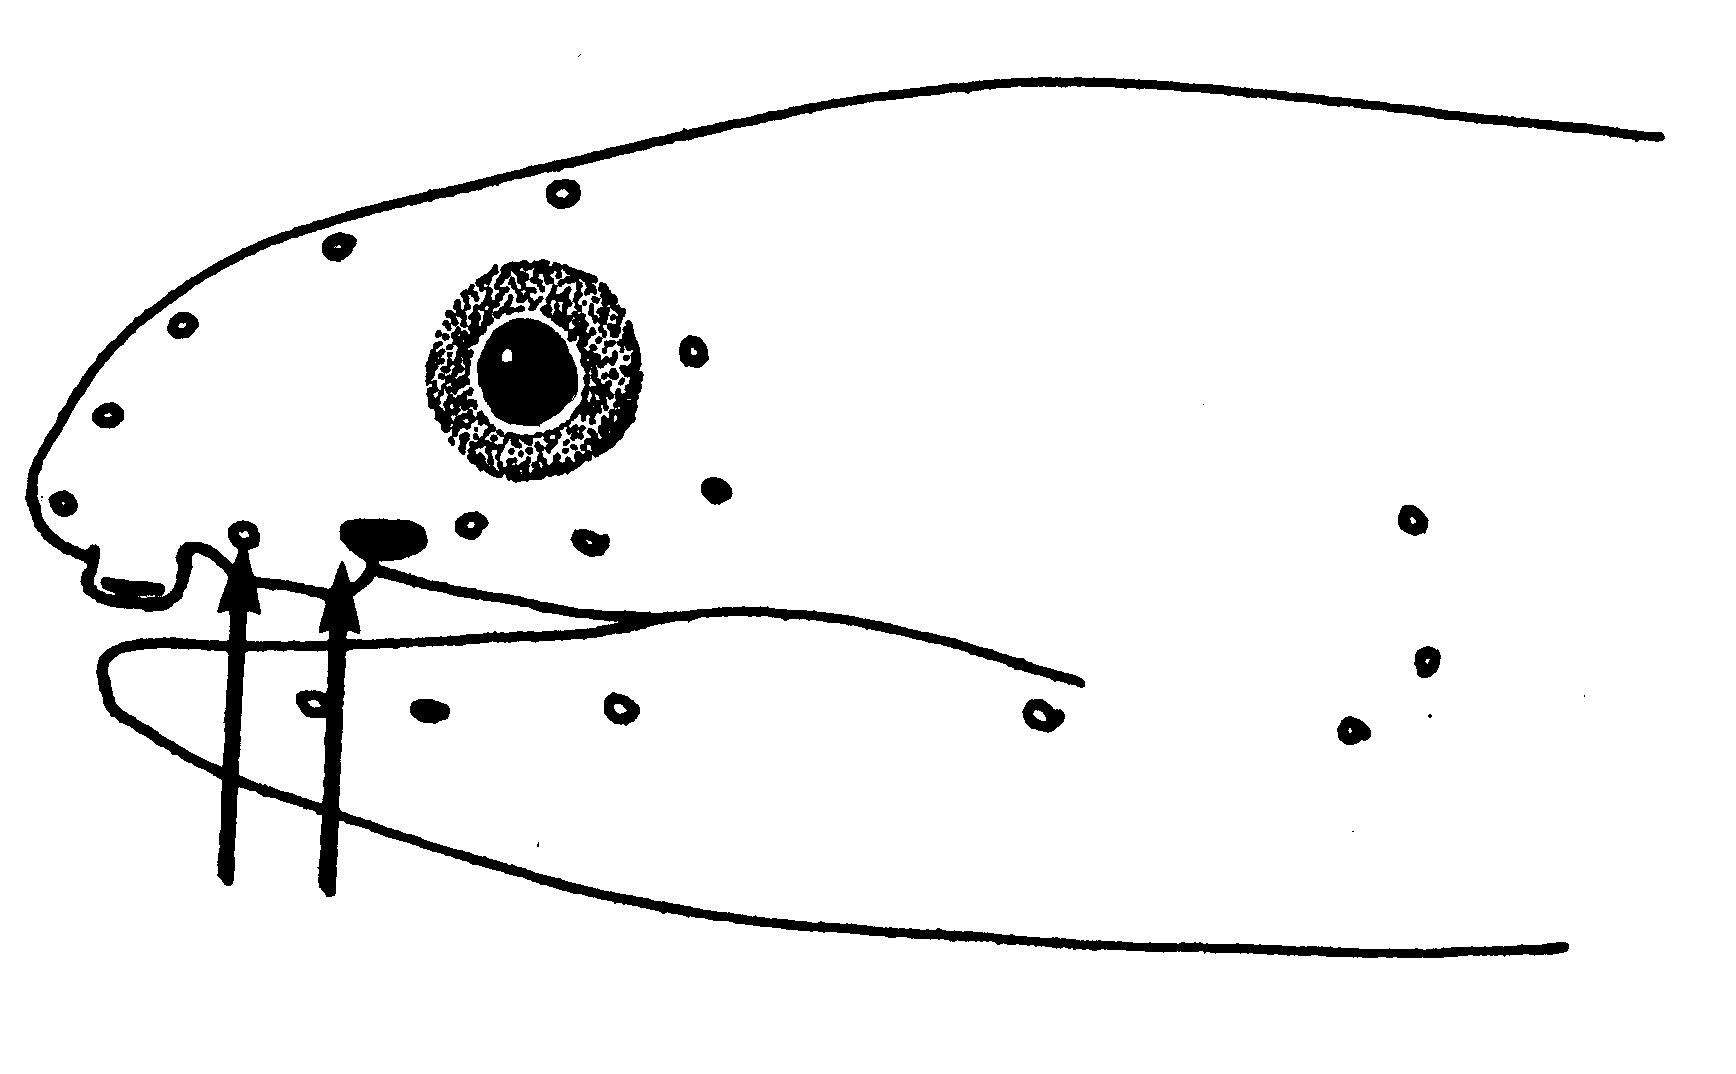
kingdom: Animalia
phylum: Chordata
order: Anguilliformes
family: Ophichthidae
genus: Muraenichthys
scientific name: Muraenichthys schultzei
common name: Schultz's worm eel
